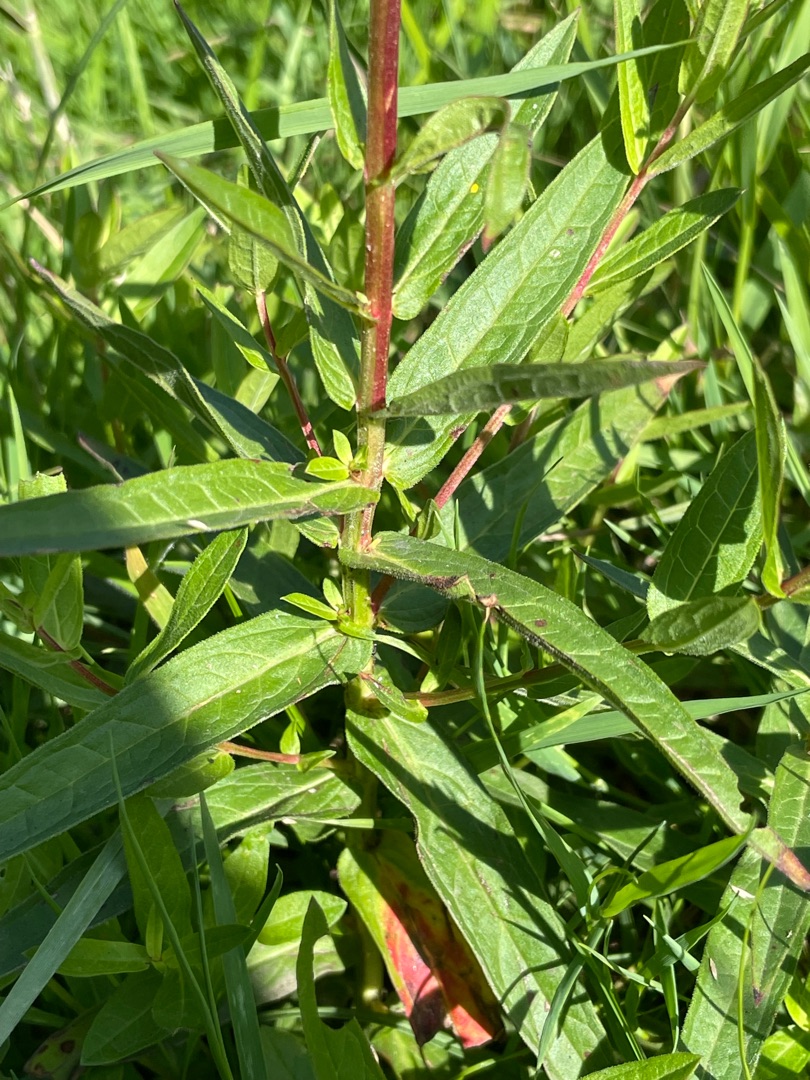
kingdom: Plantae
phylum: Tracheophyta
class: Magnoliopsida
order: Myrtales
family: Lythraceae
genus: Lythrum
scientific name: Lythrum salicaria
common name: Kattehale
